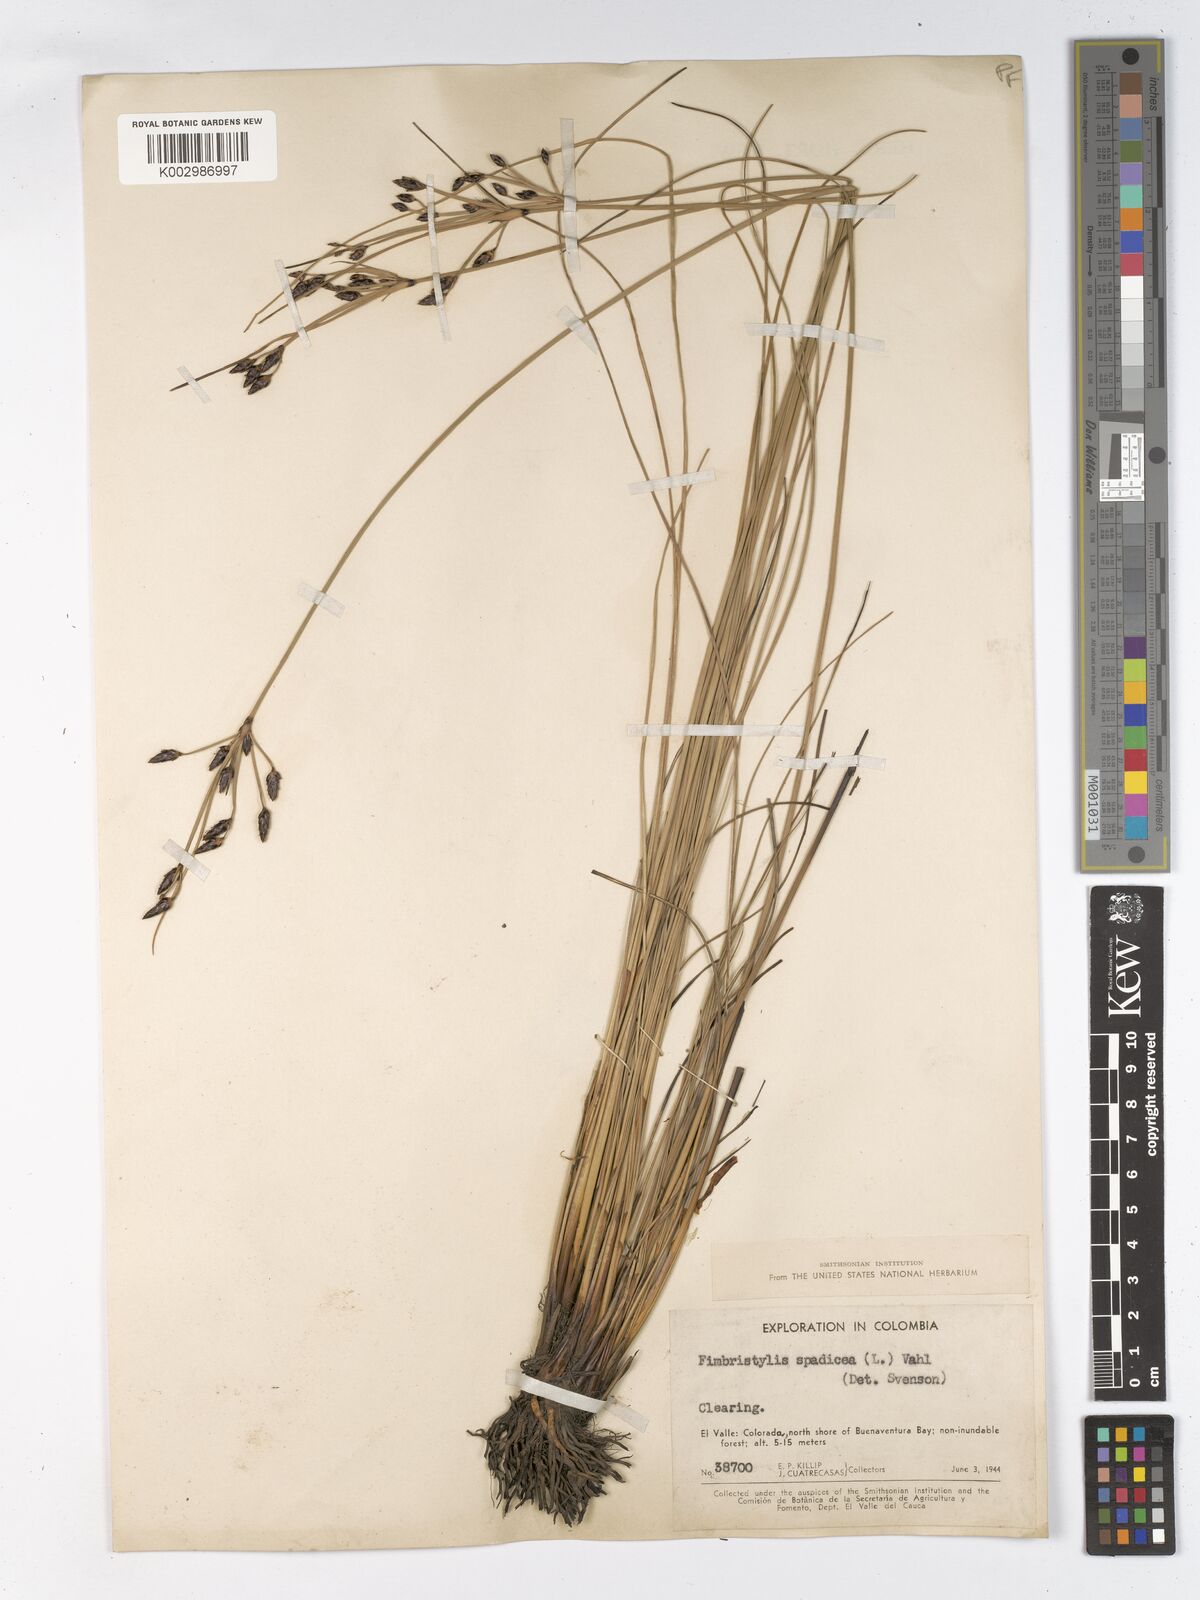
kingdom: Plantae
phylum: Tracheophyta
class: Liliopsida
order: Poales
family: Cyperaceae
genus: Fimbristylis
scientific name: Fimbristylis spadicea
